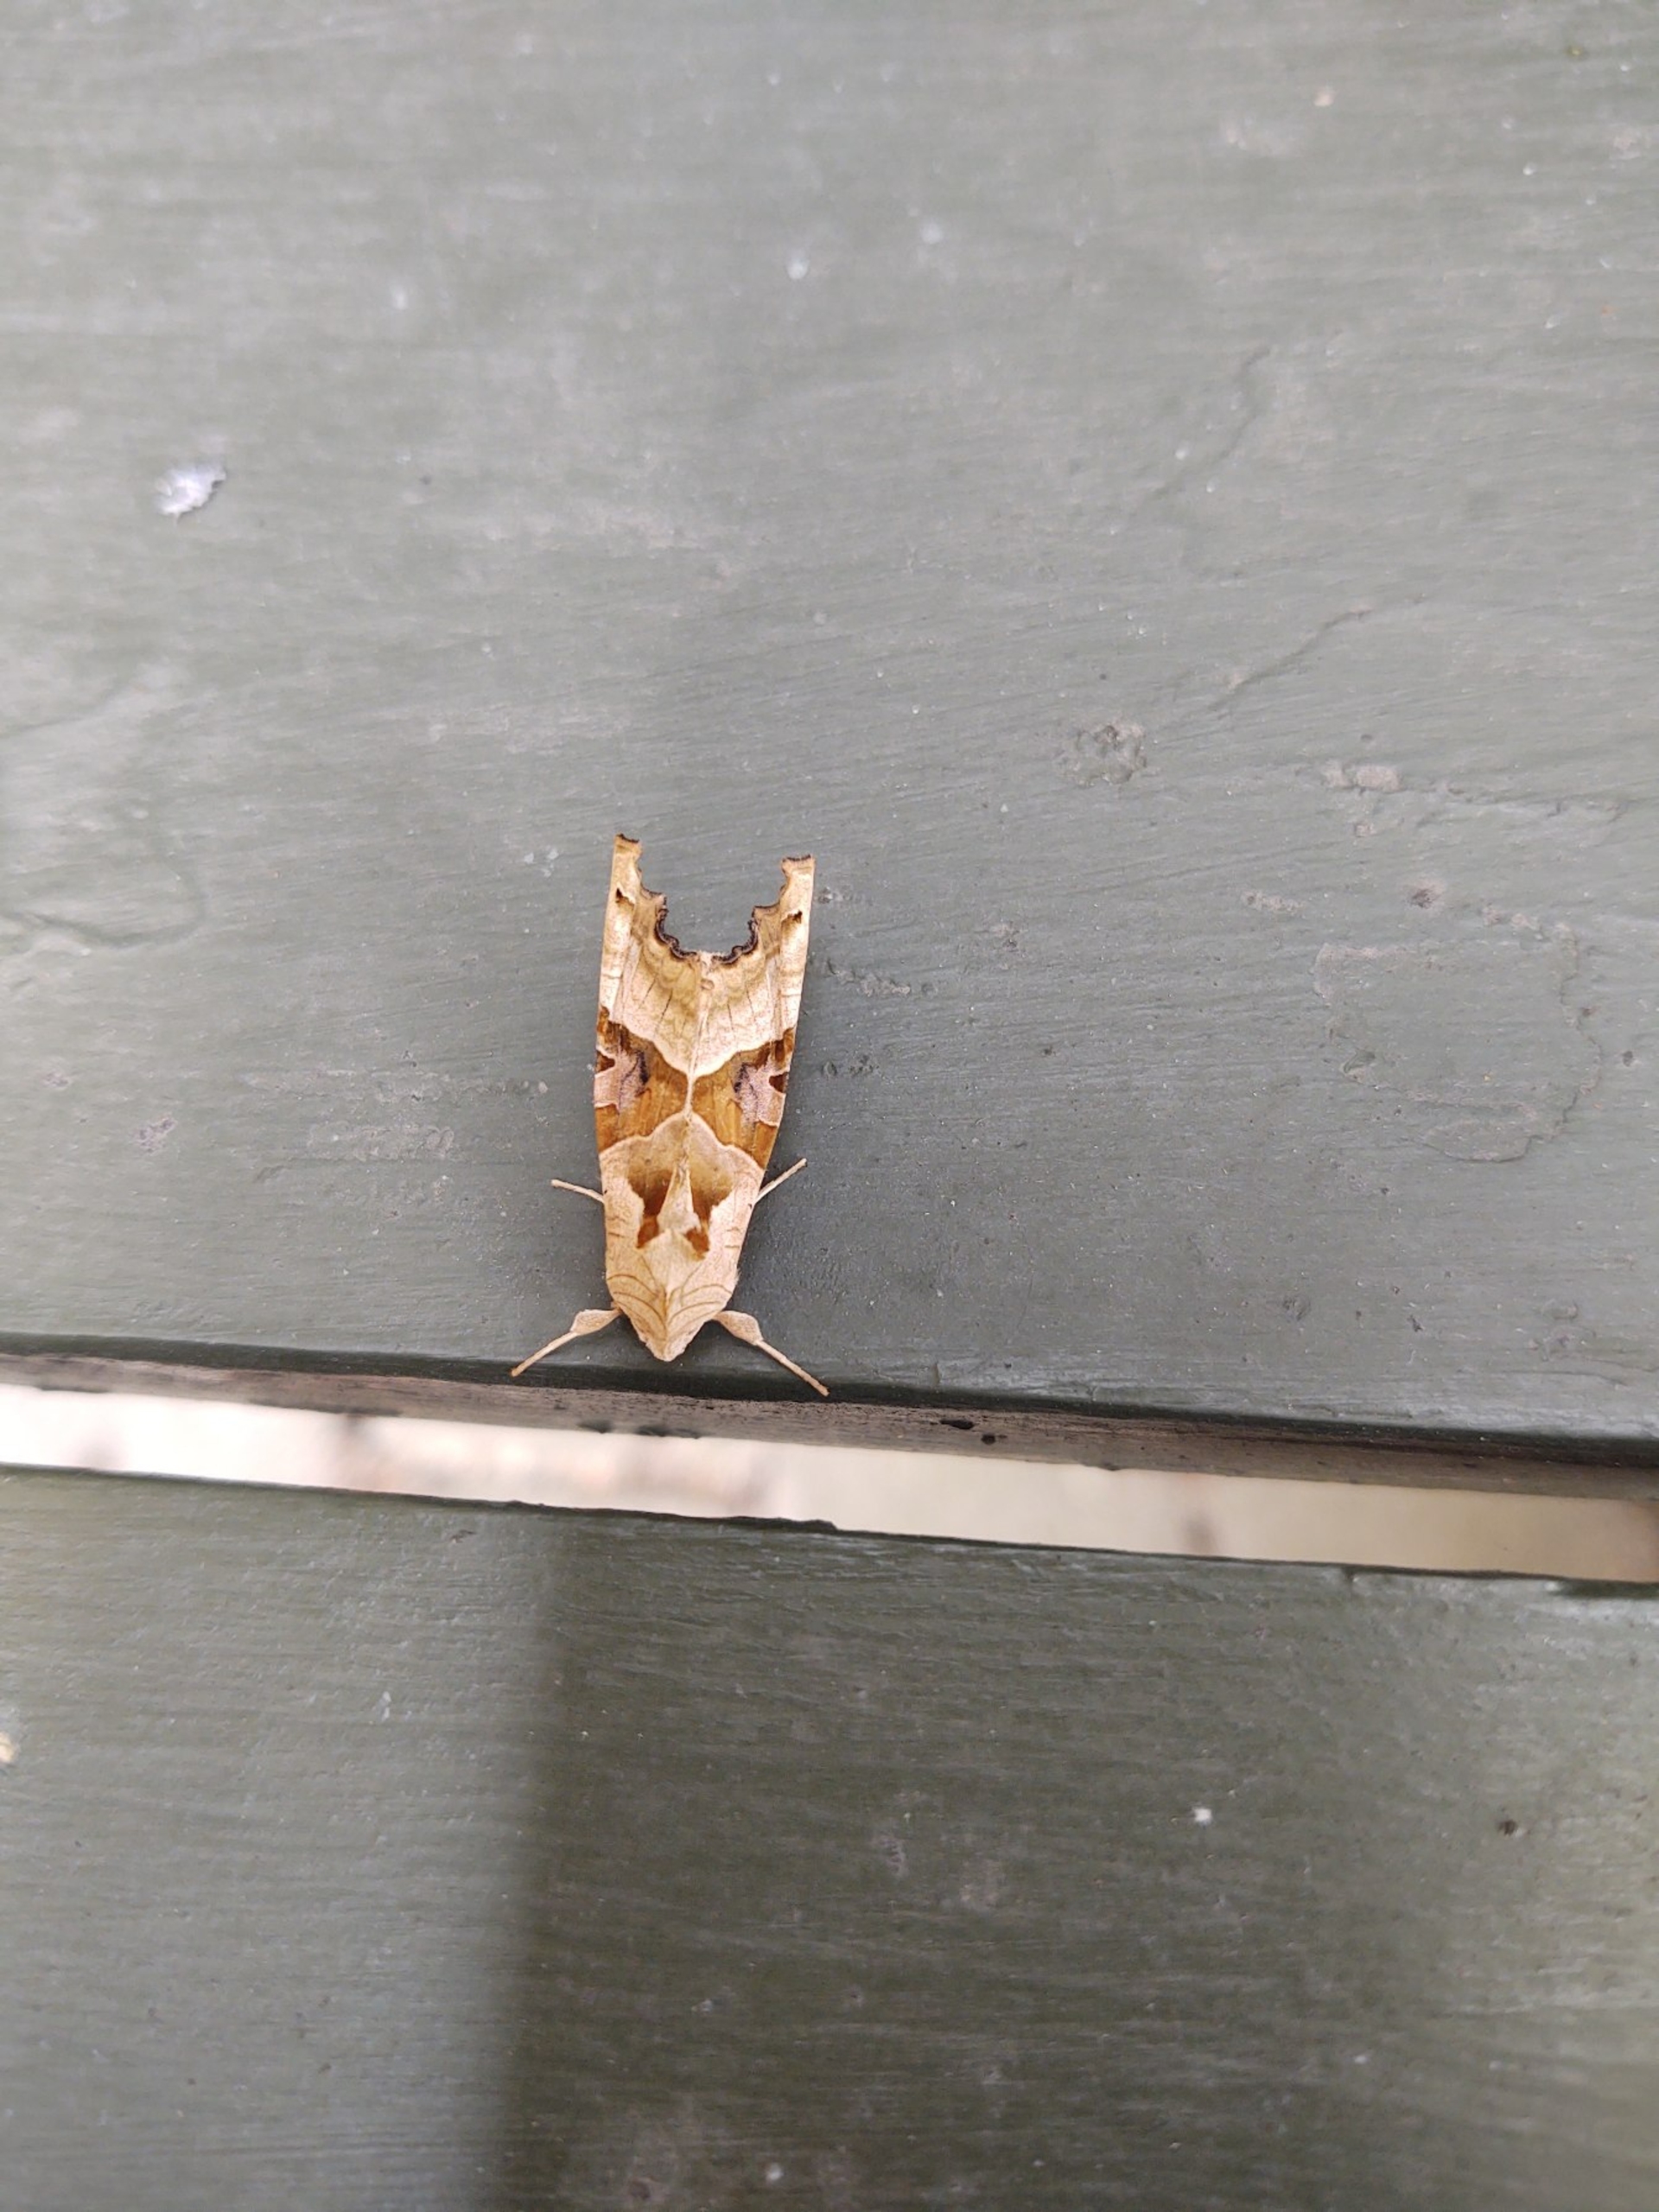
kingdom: Animalia
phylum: Arthropoda
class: Insecta
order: Lepidoptera
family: Noctuidae
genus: Phlogophora
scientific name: Phlogophora meticulosa
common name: Agatugle
